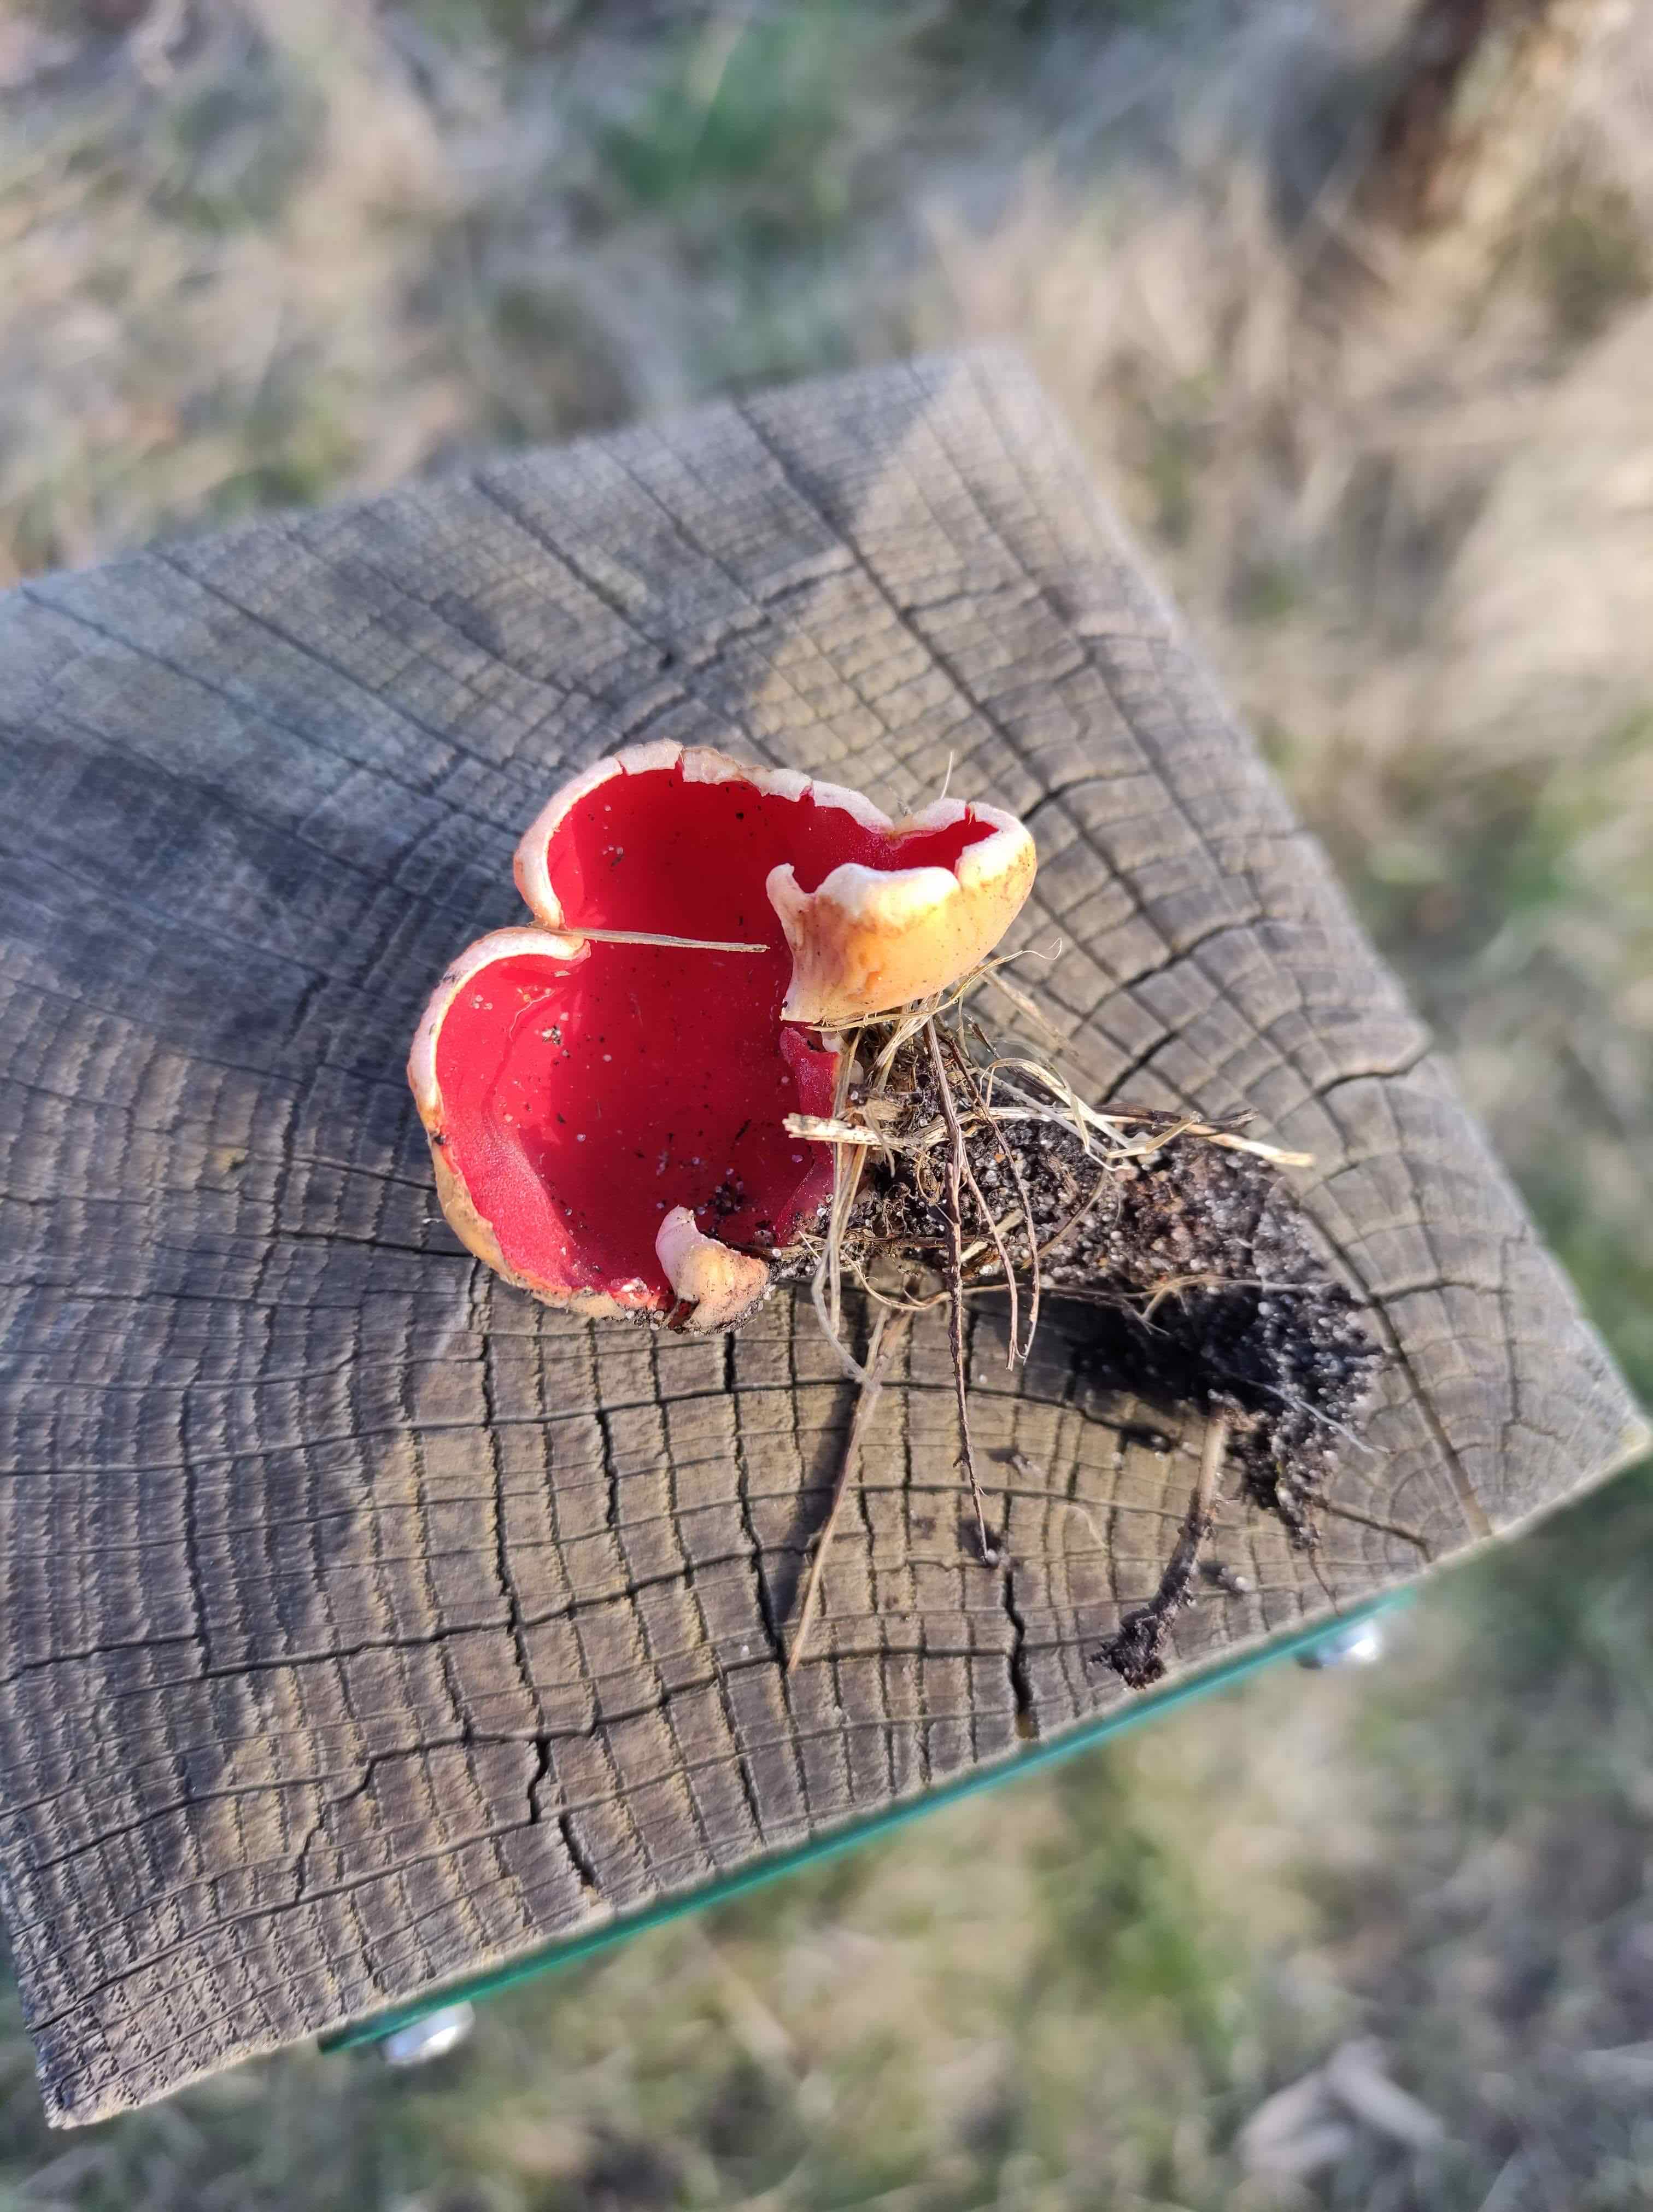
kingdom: Fungi
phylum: Ascomycota
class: Pezizomycetes
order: Pezizales
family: Sarcoscyphaceae
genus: Sarcoscypha
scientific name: Sarcoscypha
